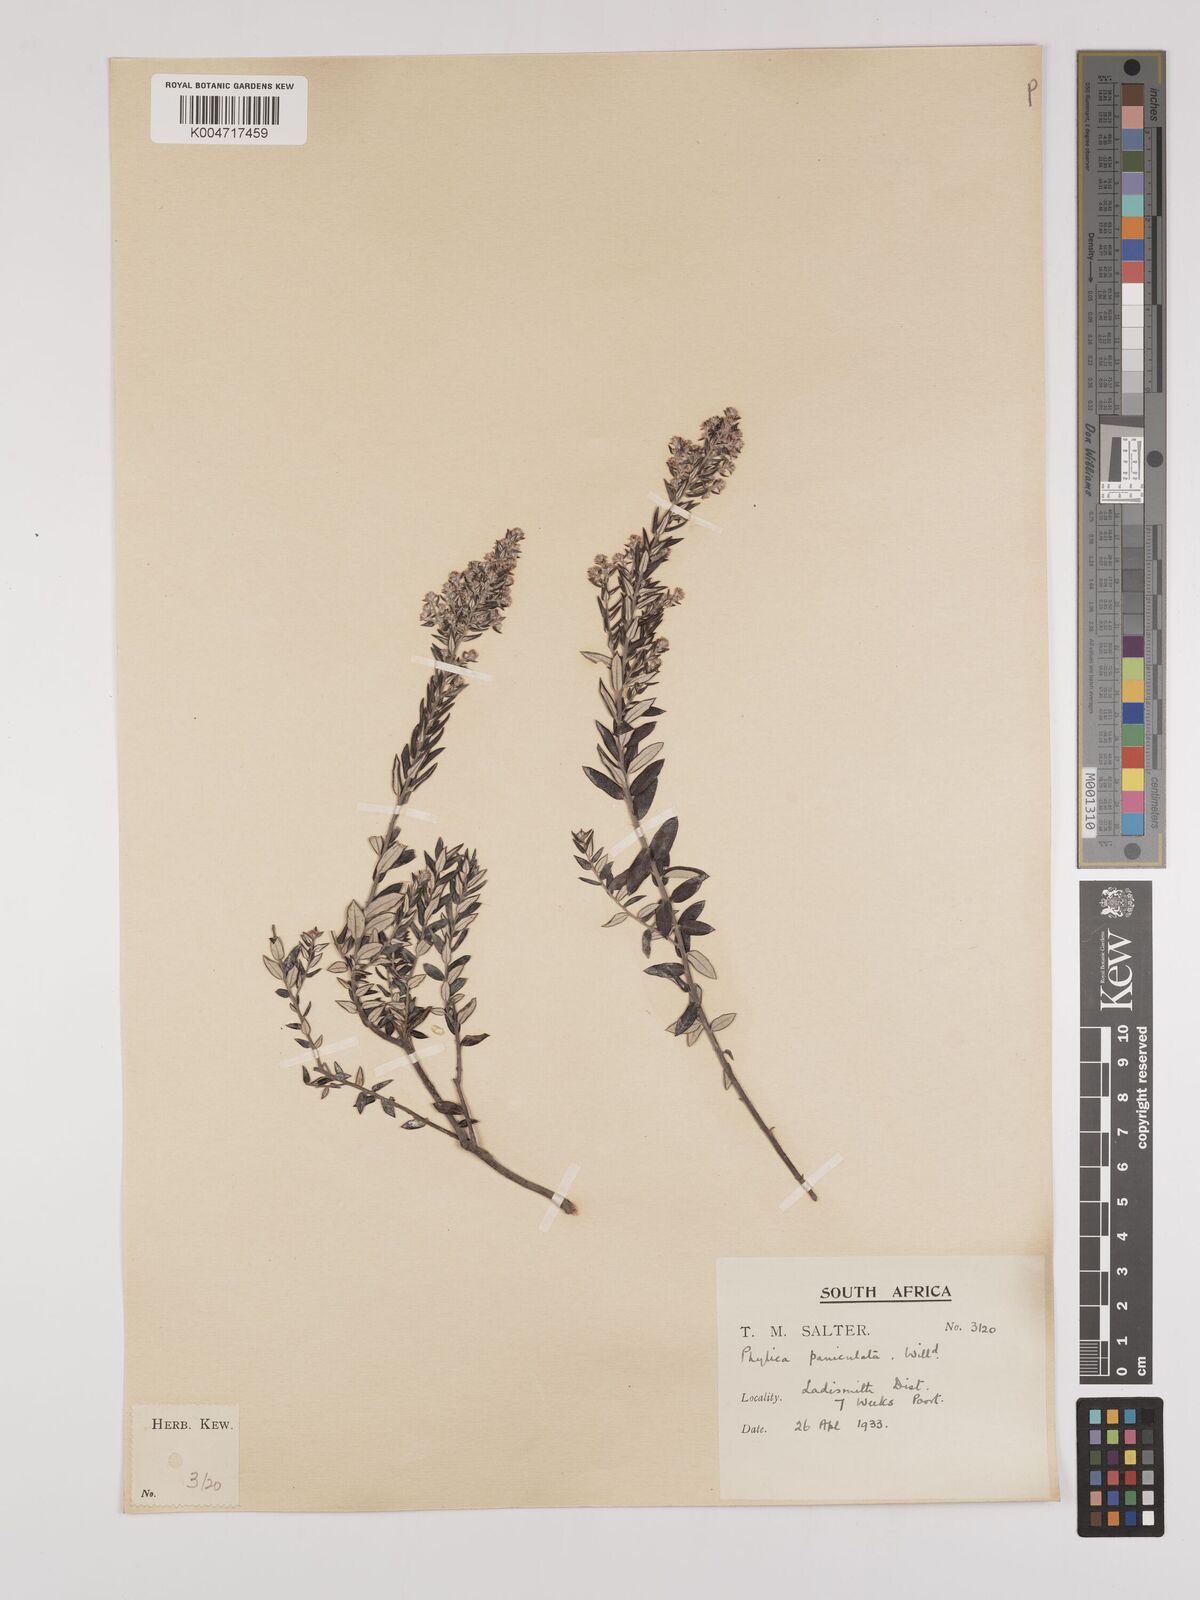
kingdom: Plantae
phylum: Tracheophyta
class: Magnoliopsida
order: Rosales
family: Rhamnaceae
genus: Phylica
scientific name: Phylica paniculata
